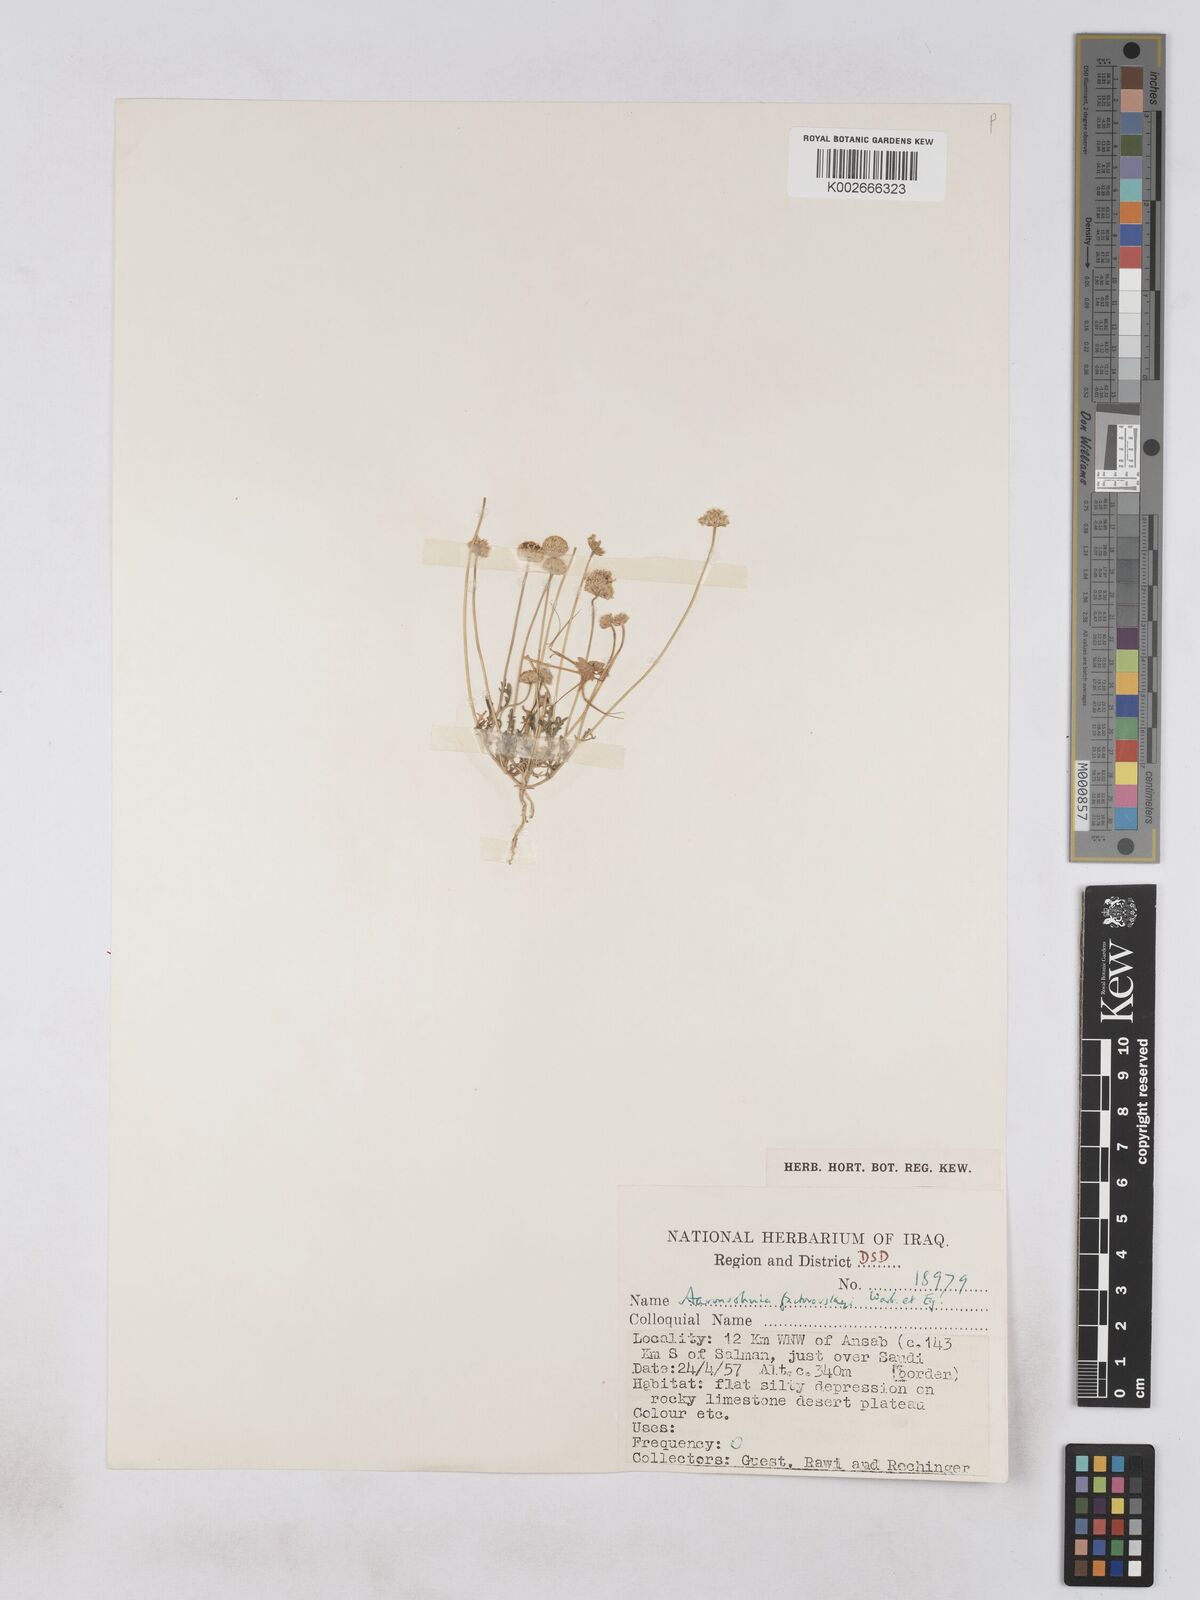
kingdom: Plantae
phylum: Tracheophyta
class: Magnoliopsida
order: Asterales
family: Asteraceae
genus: Otoglyphis
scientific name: Otoglyphis factorovskyi
